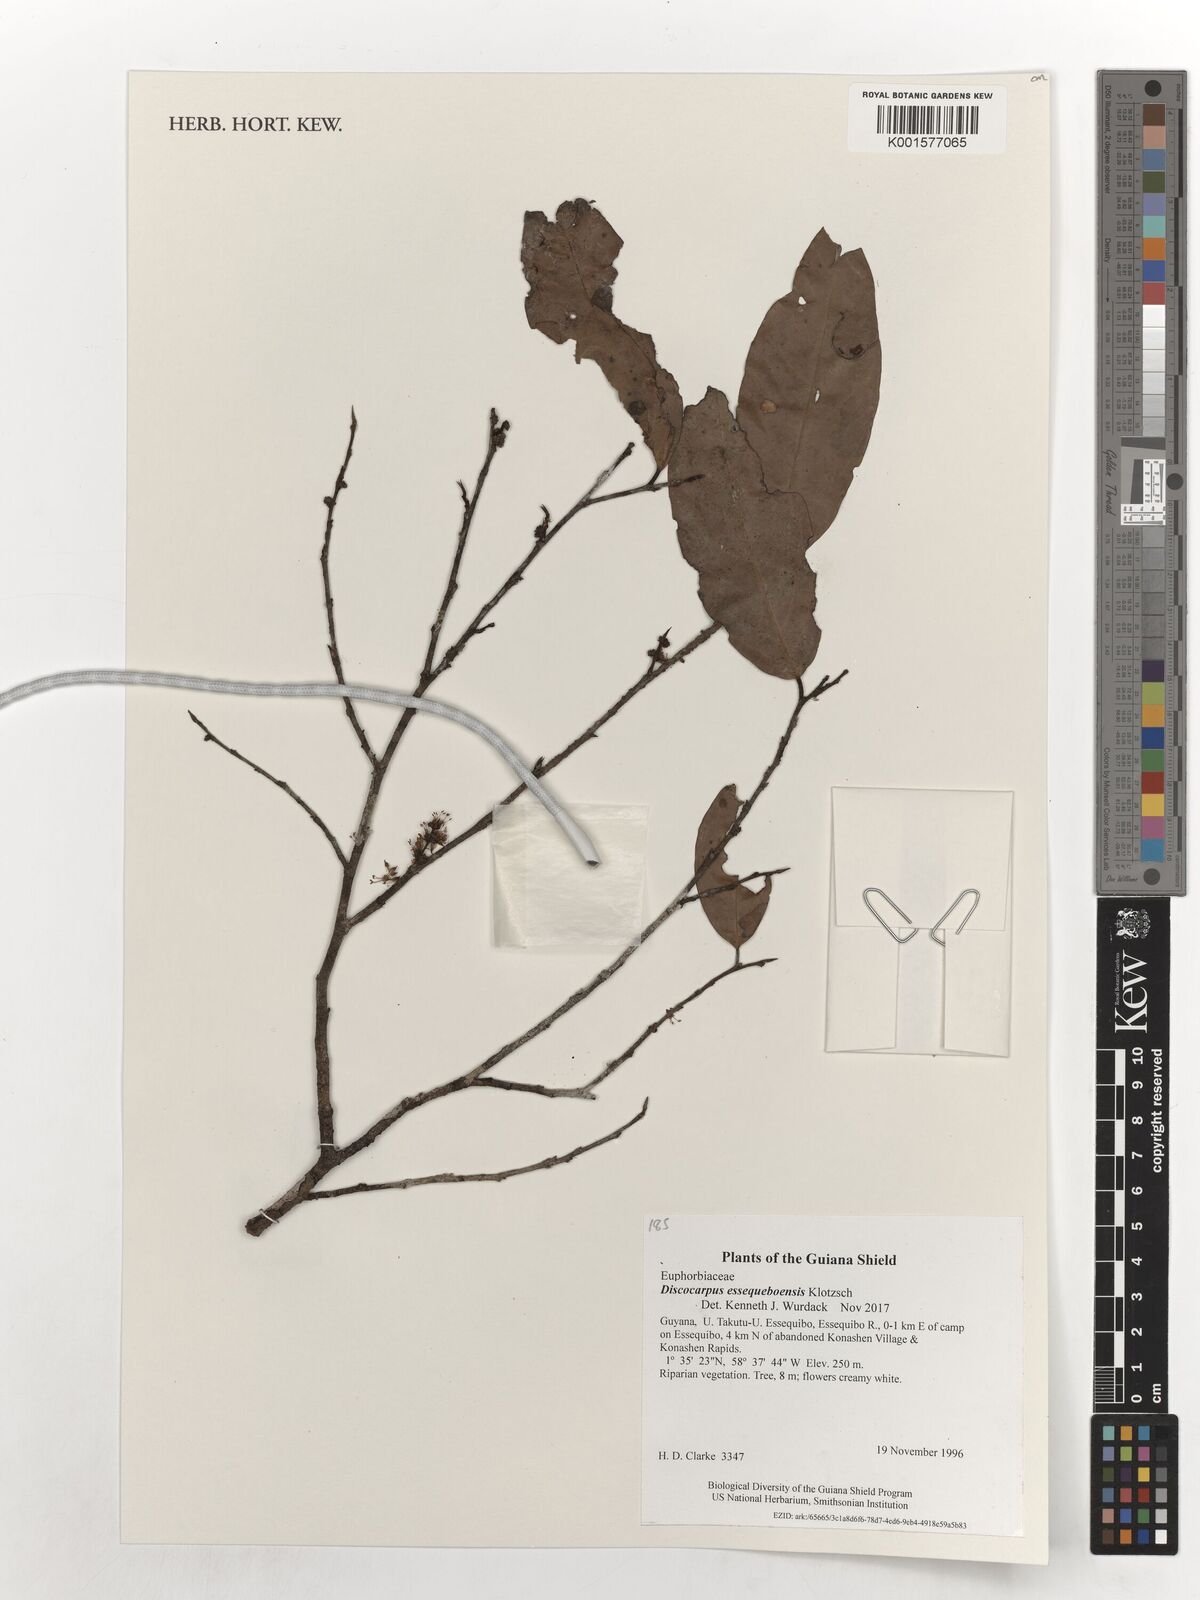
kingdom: Plantae
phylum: Tracheophyta
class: Magnoliopsida
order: Malpighiales
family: Phyllanthaceae
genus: Discocarpus
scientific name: Discocarpus essequeboensis
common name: Sqaure-wood
